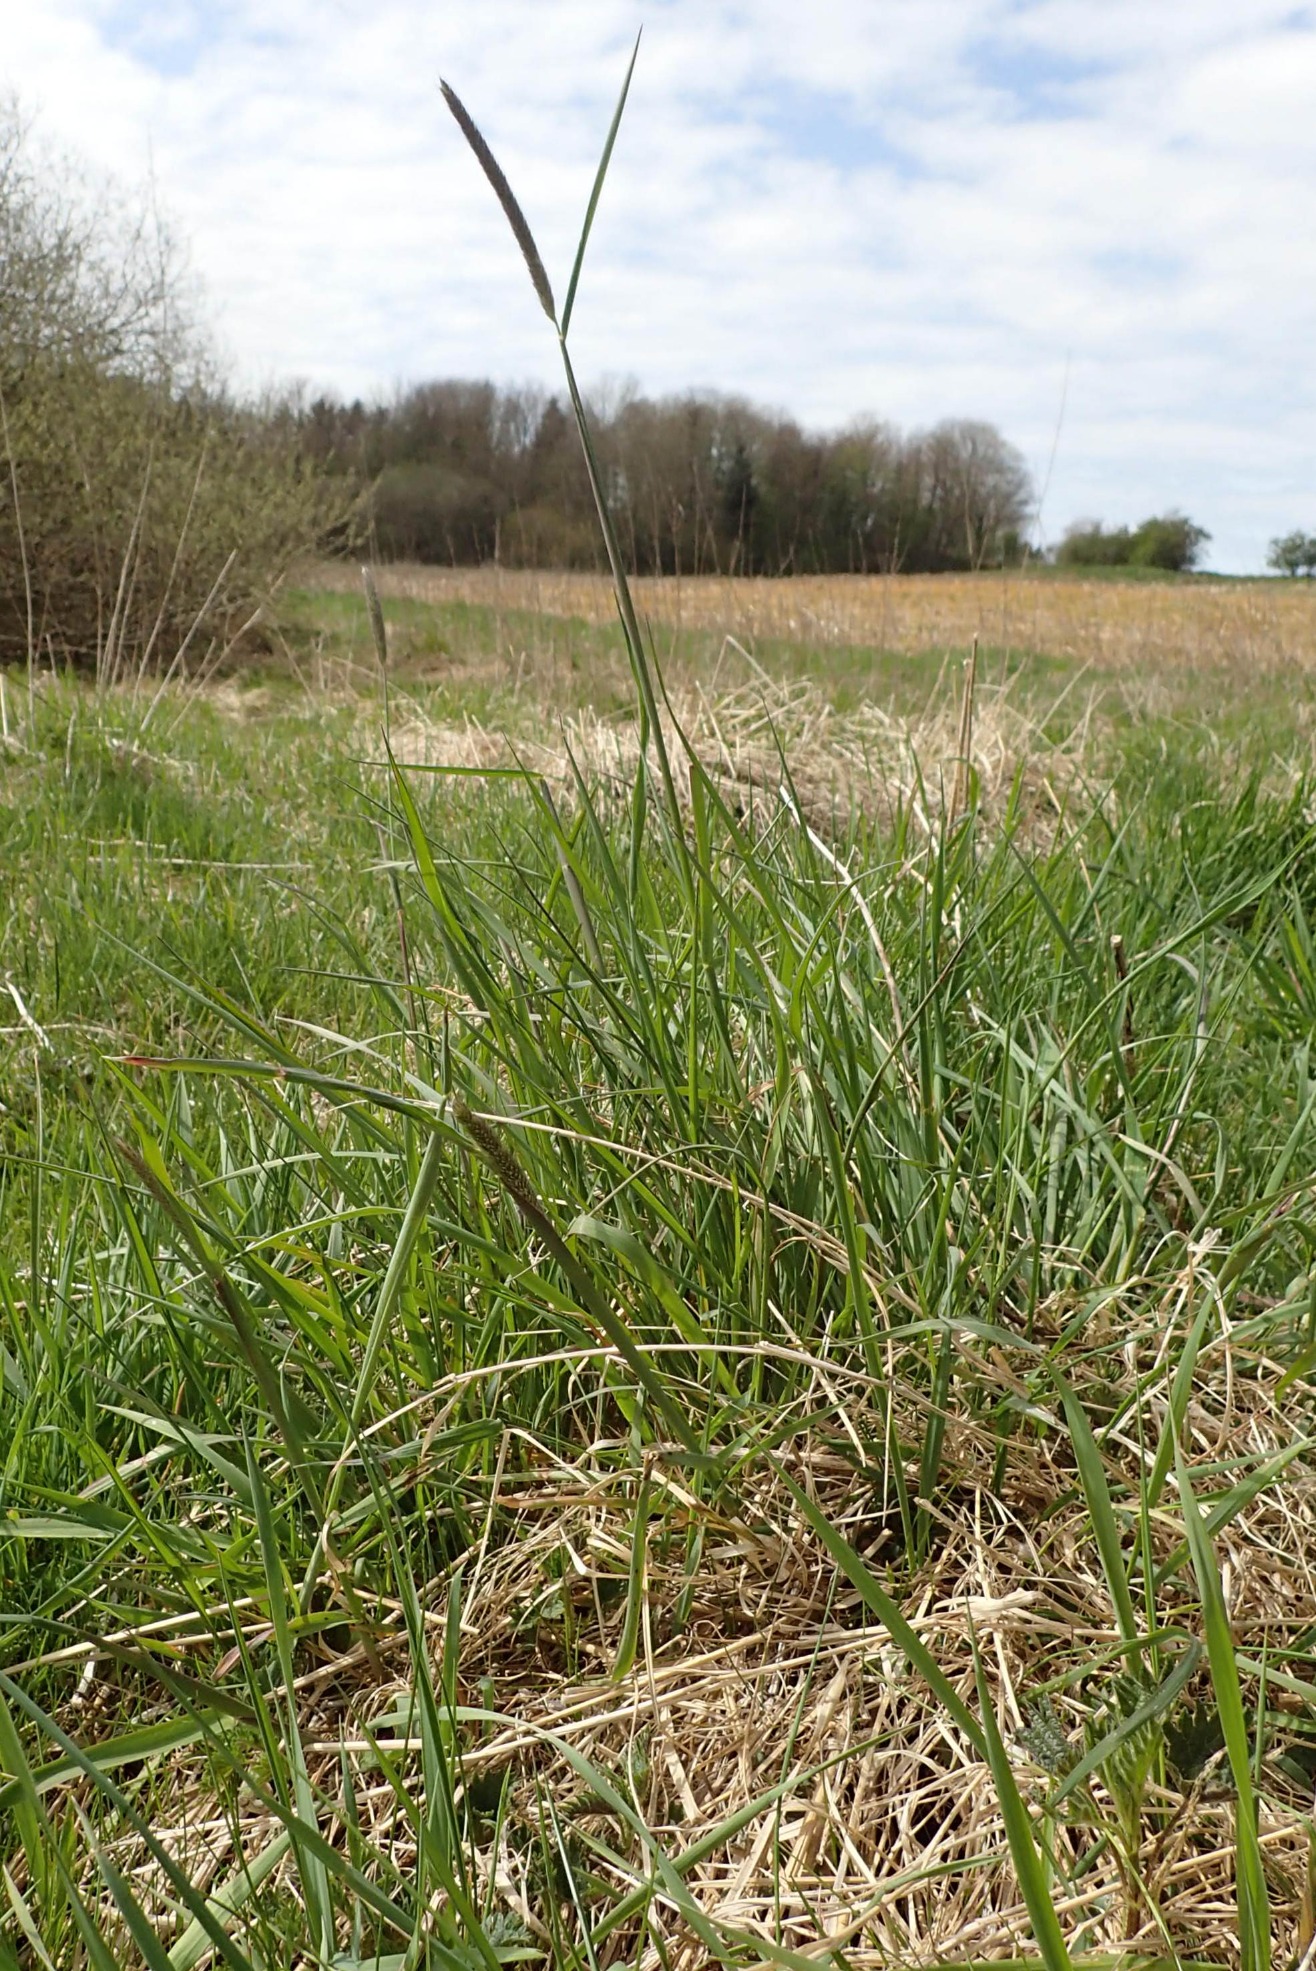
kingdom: Plantae
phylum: Tracheophyta
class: Liliopsida
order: Poales
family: Poaceae
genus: Alopecurus
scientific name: Alopecurus pratensis
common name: Eng-rævehale
